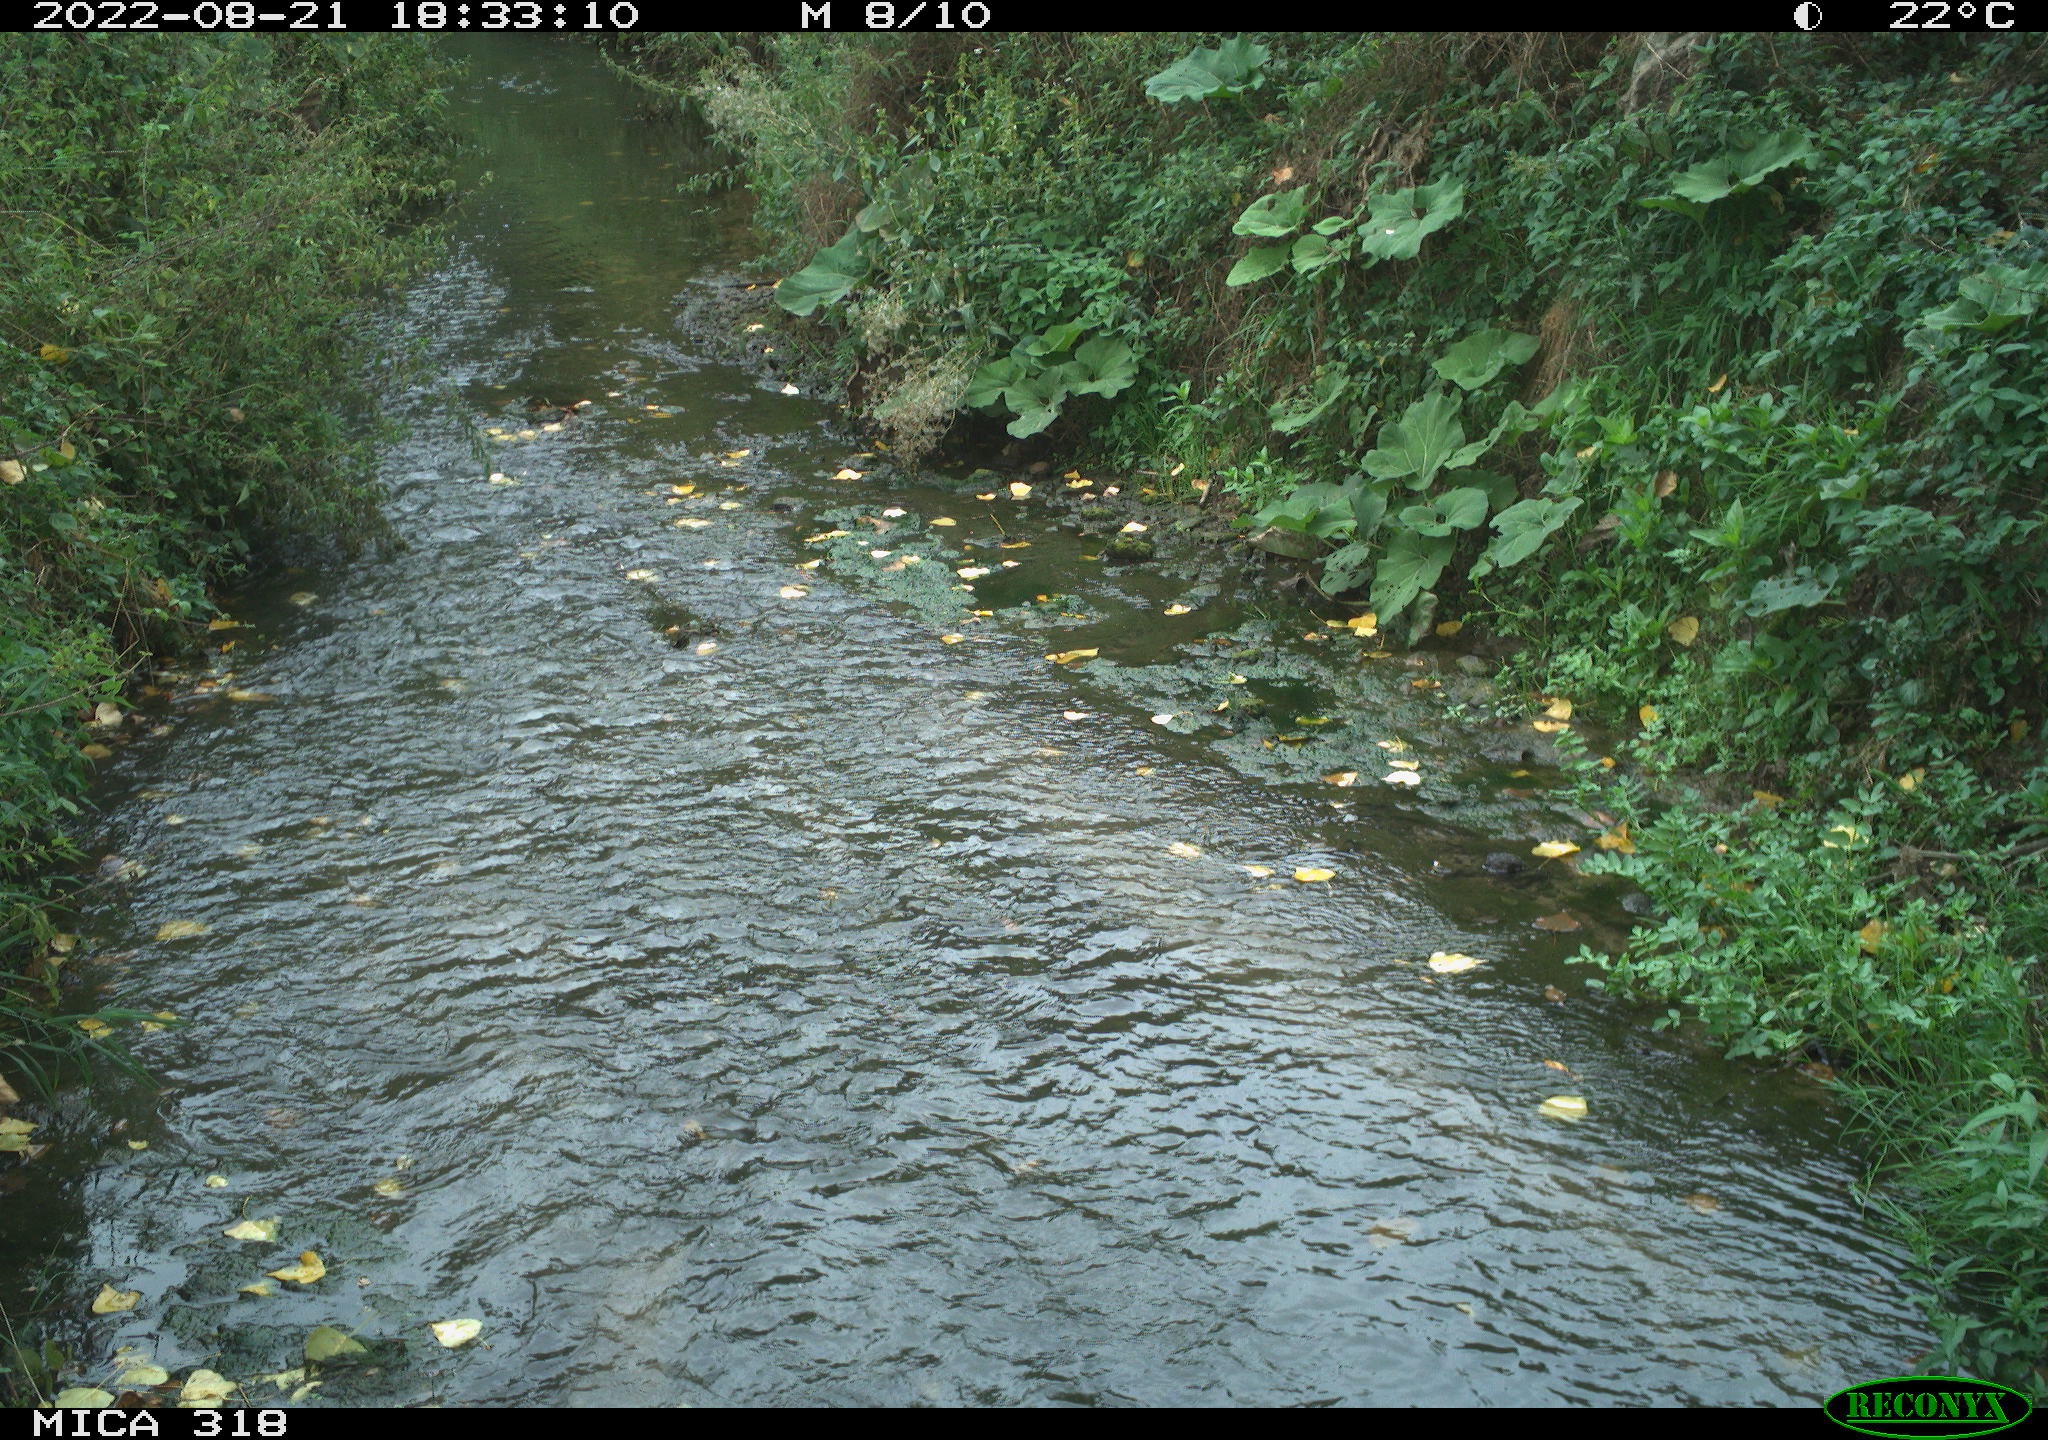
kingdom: Animalia
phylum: Chordata
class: Mammalia
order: Carnivora
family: Canidae
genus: Canis
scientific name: Canis lupus
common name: Gray wolf
